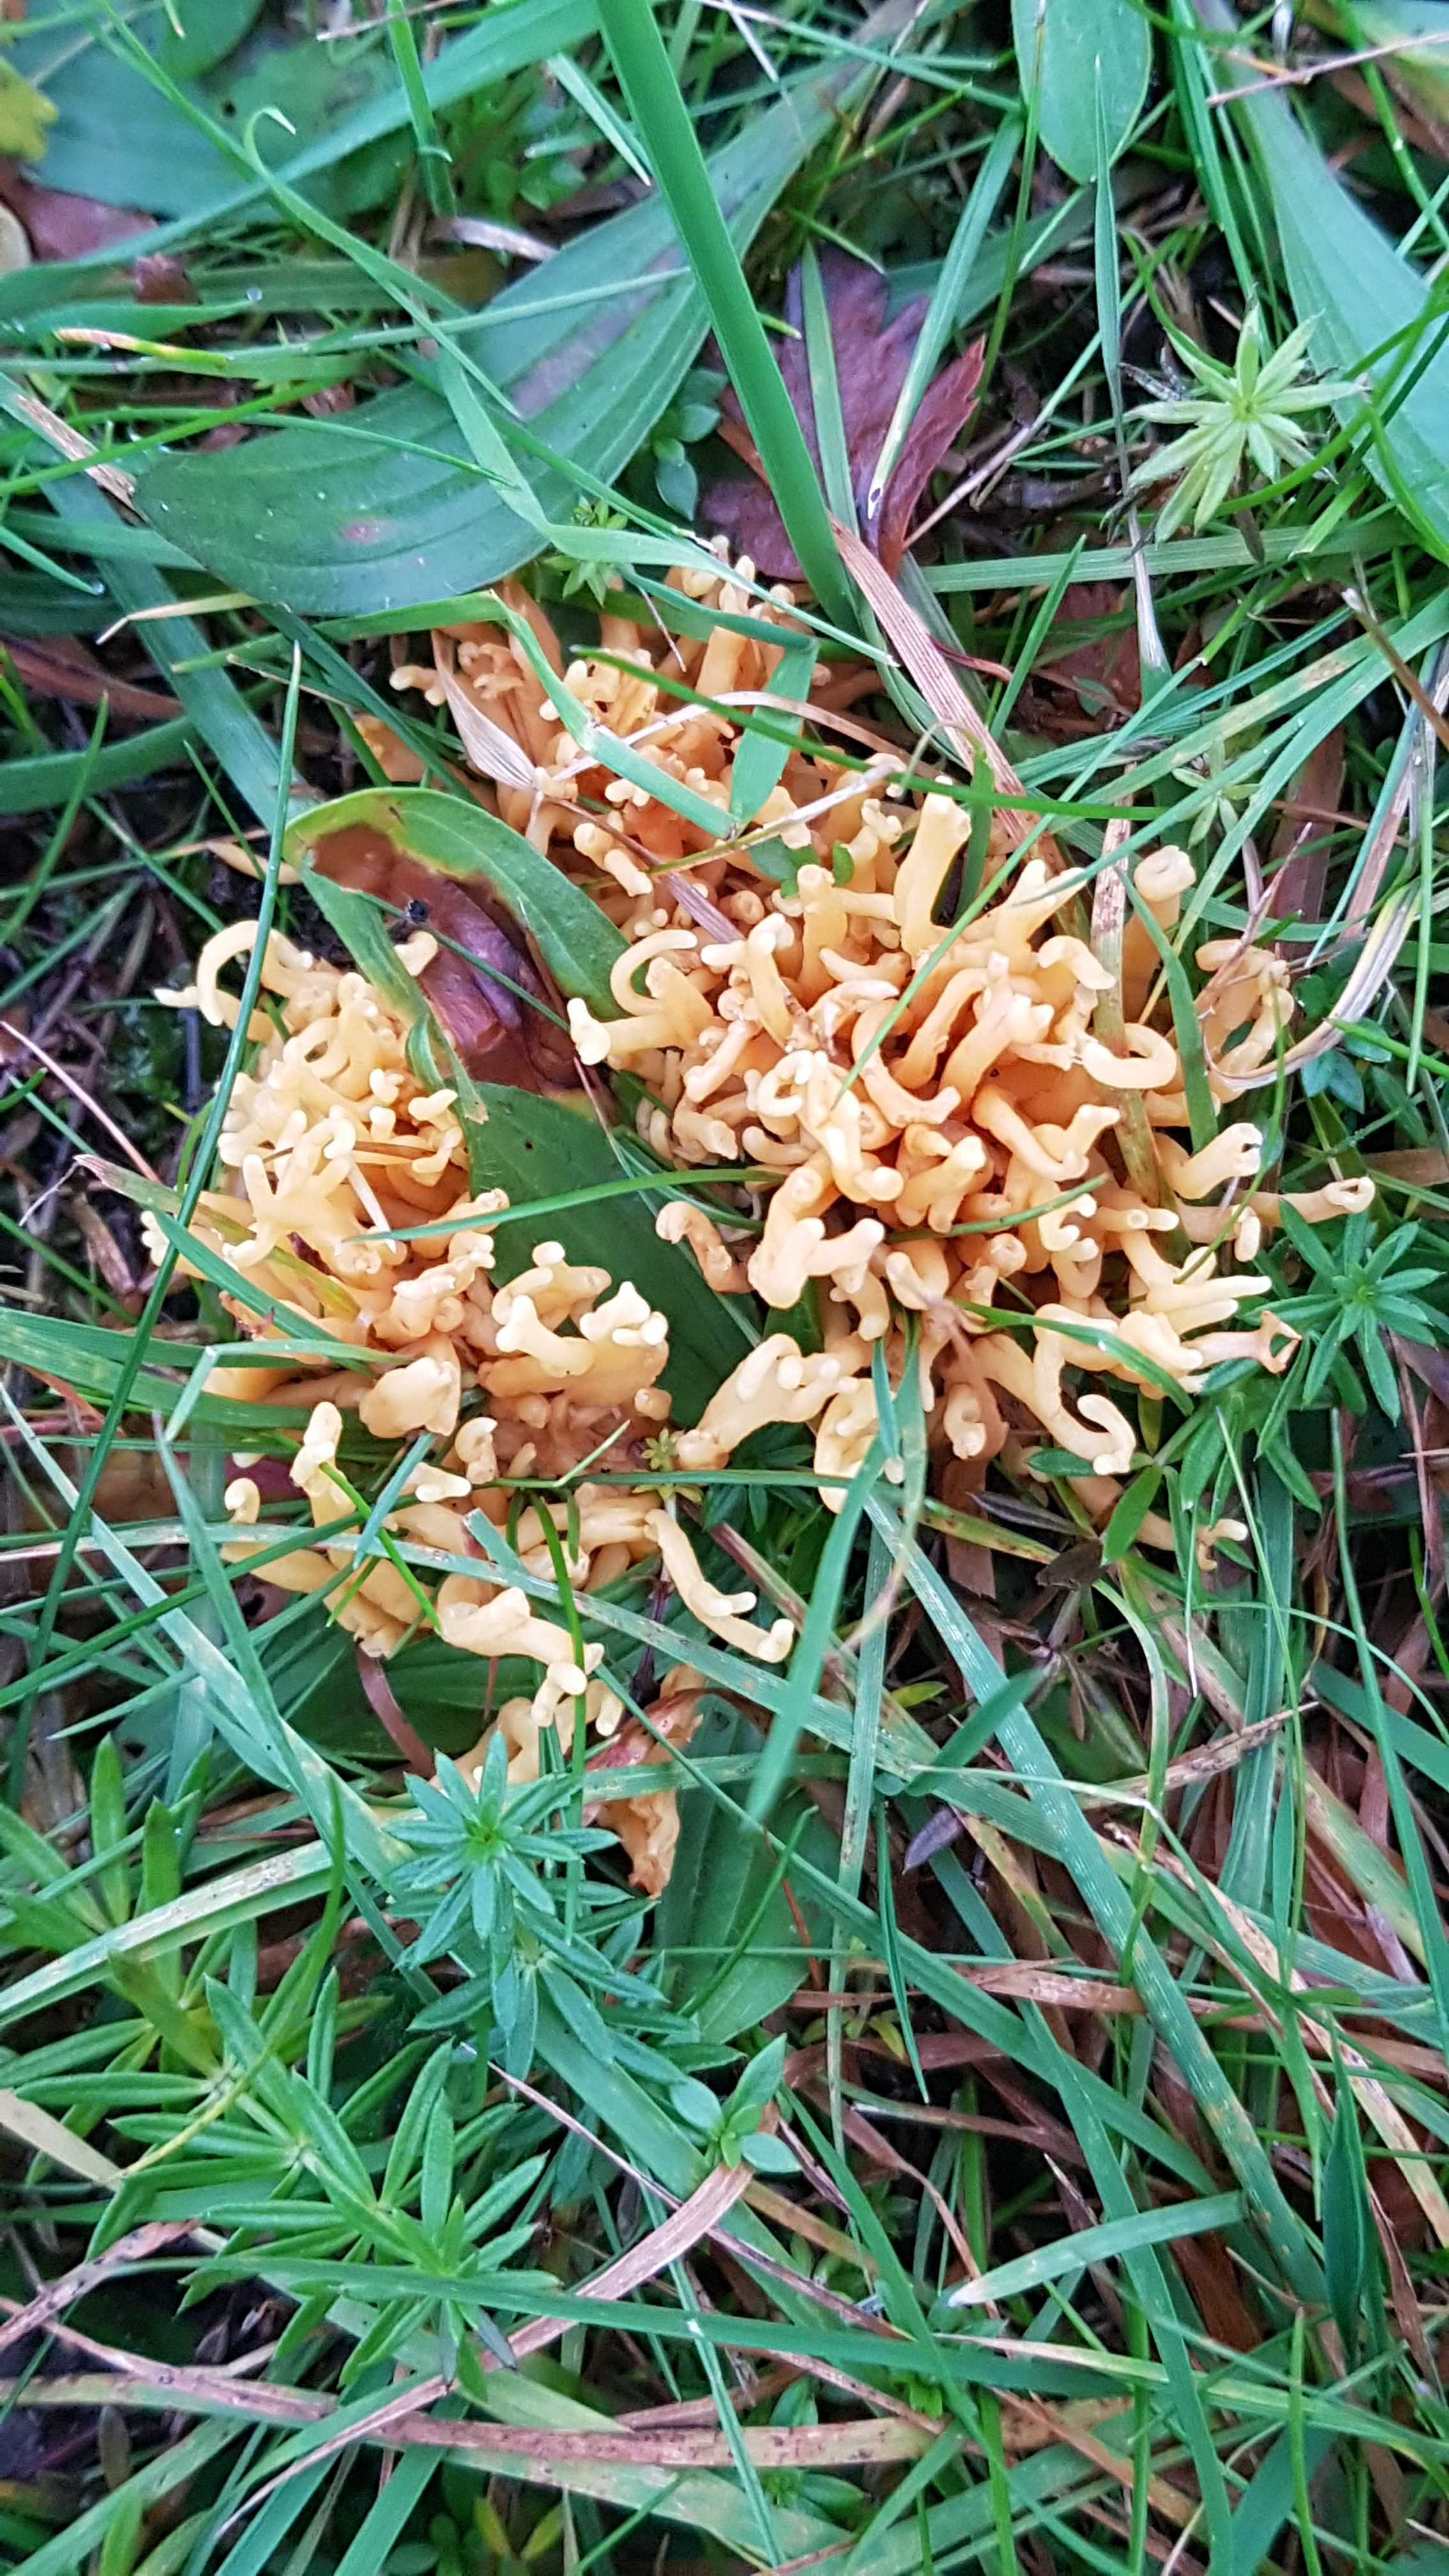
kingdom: Fungi
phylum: Basidiomycota
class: Agaricomycetes
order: Agaricales
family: Clavariaceae
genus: Clavulinopsis
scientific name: Clavulinopsis corniculata
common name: eng-køllesvamp
